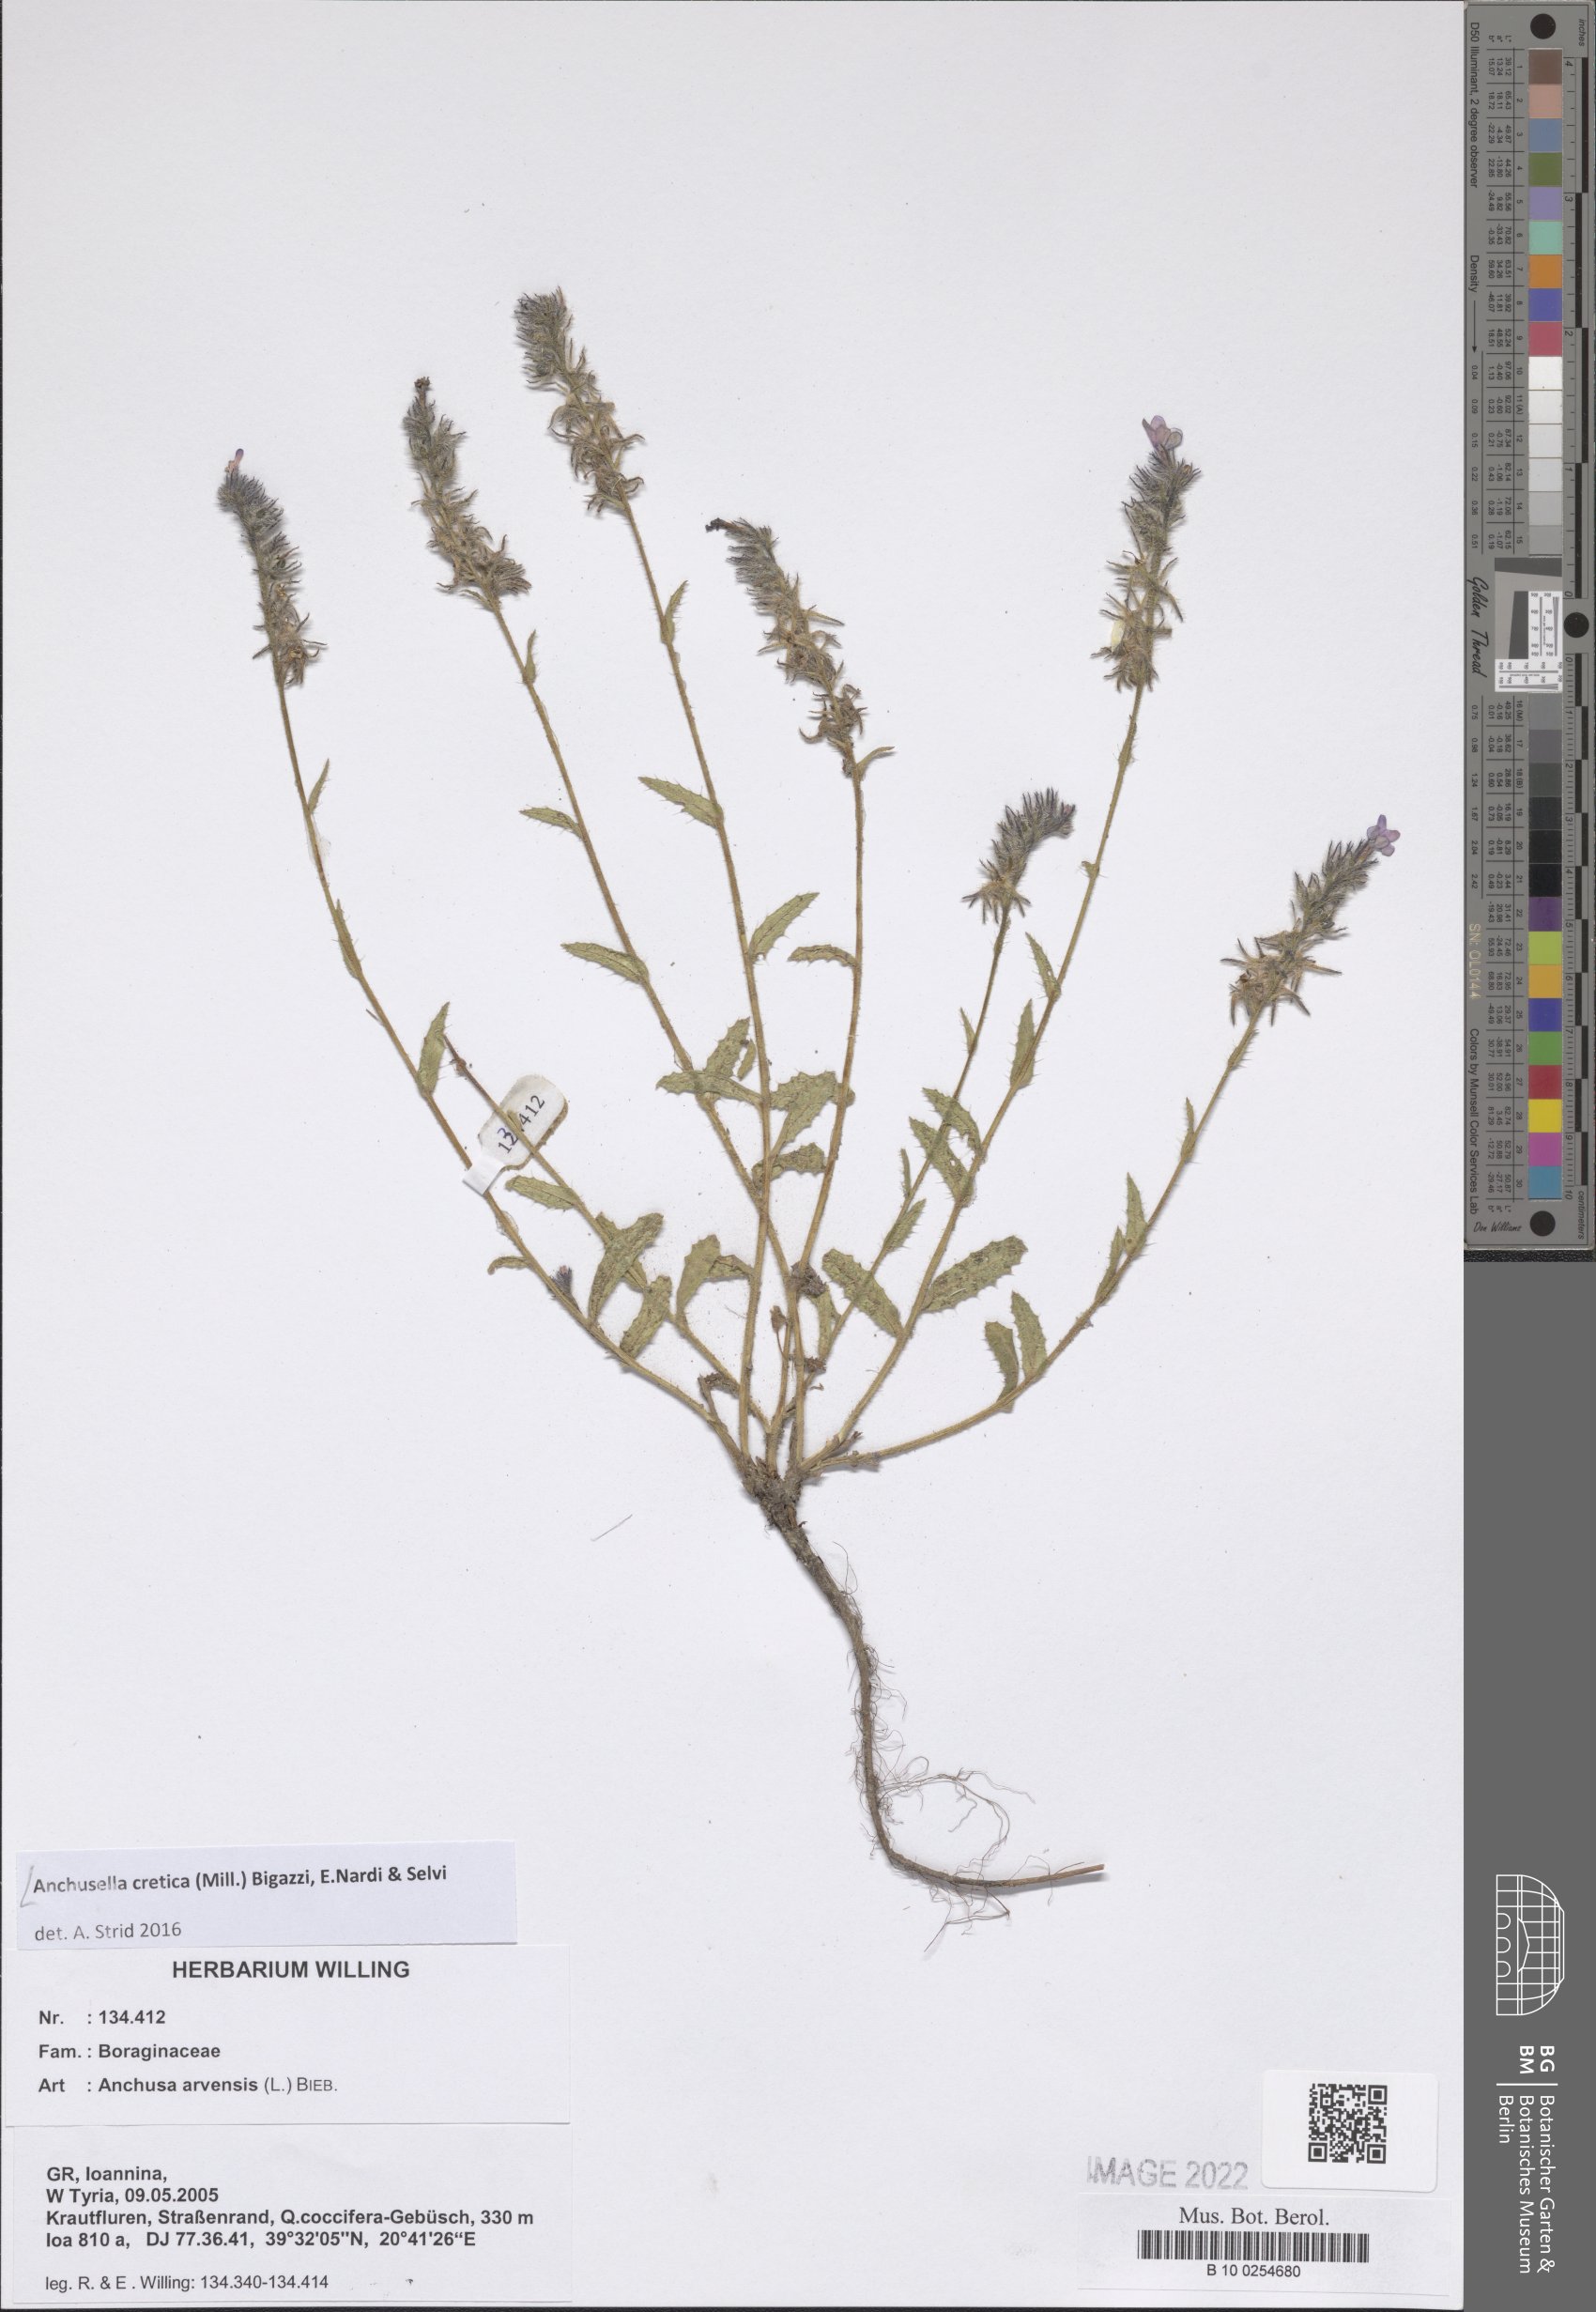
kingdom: Plantae
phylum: Tracheophyta
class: Magnoliopsida
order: Boraginales
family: Boraginaceae
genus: Anchusella
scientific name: Anchusella cretica
